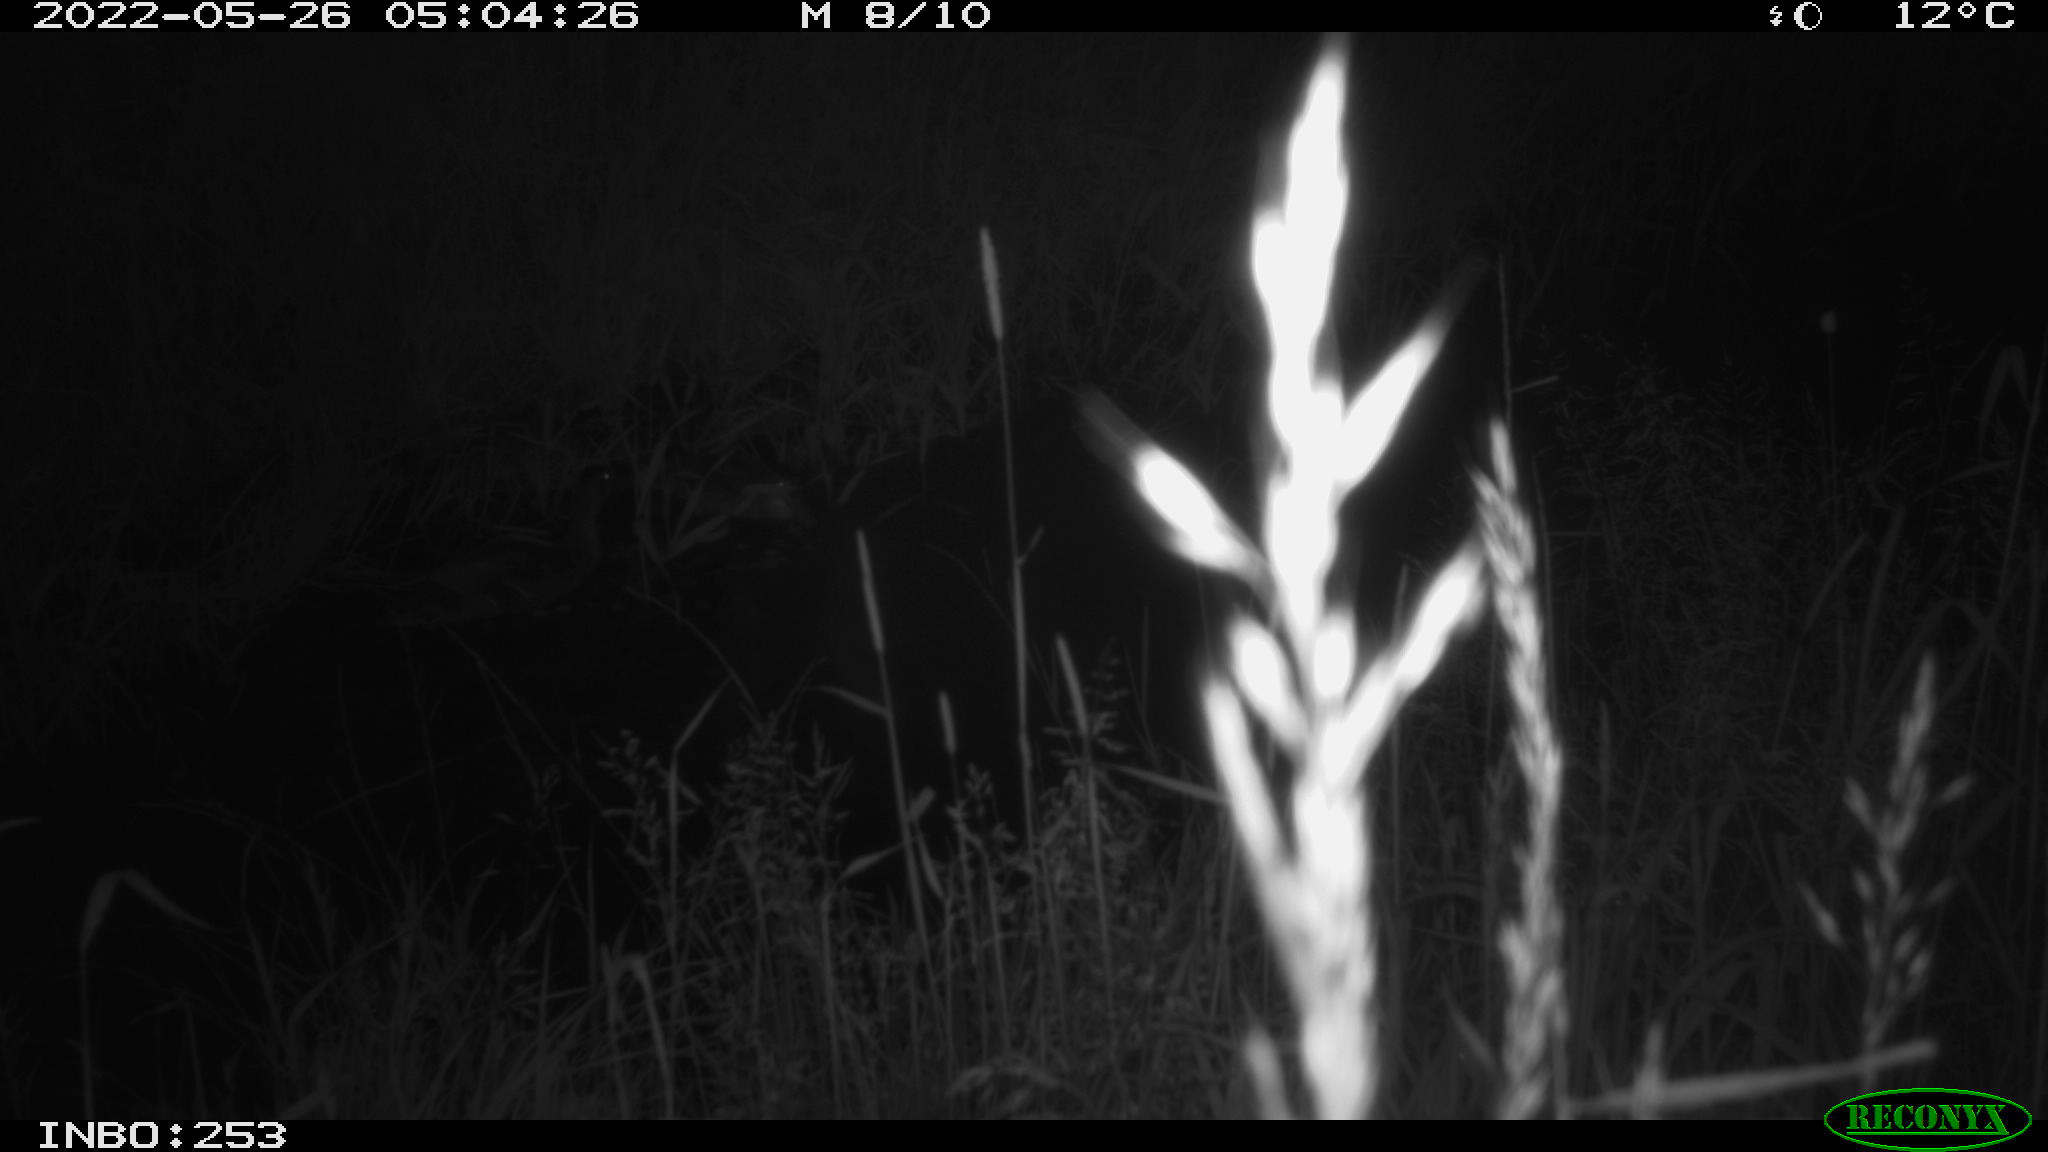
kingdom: Animalia
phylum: Chordata
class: Aves
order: Anseriformes
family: Anatidae
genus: Anas
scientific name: Anas platyrhynchos
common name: Mallard
